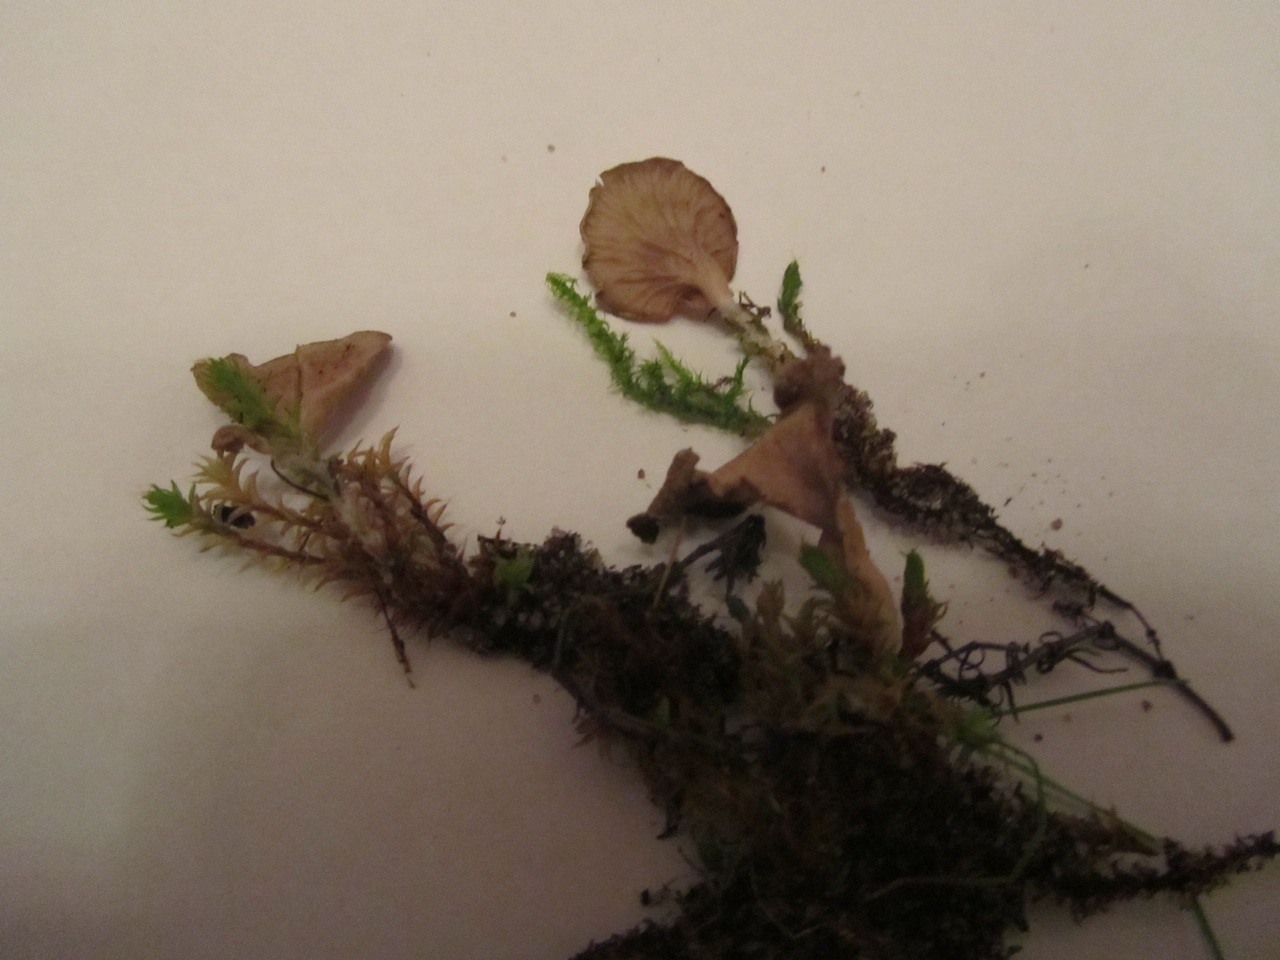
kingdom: Fungi
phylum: Basidiomycota
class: Agaricomycetes
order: Agaricales
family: Hygrophoraceae
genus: Arrhenia
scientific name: Arrhenia spathulata
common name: skæv fontænehat
